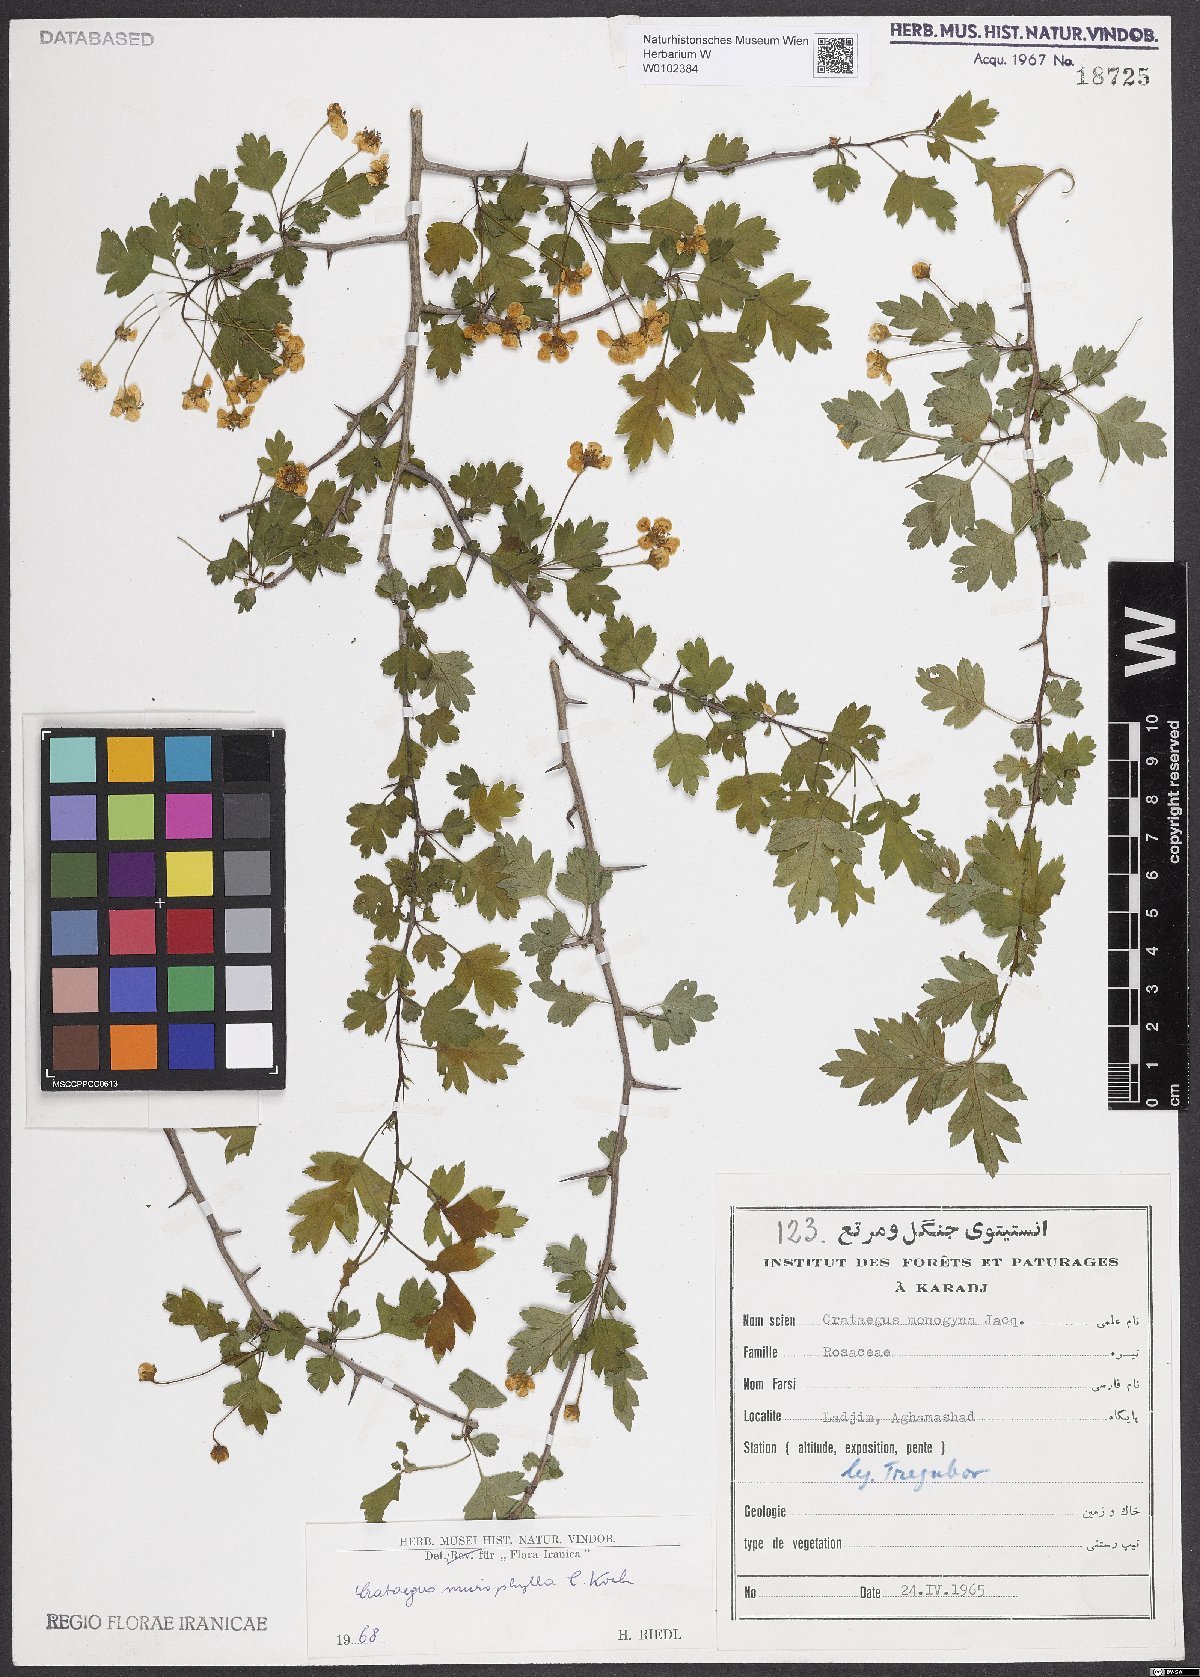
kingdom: Plantae
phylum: Tracheophyta
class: Magnoliopsida
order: Rosales
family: Rosaceae
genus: Crataegus
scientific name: Crataegus microphylla
